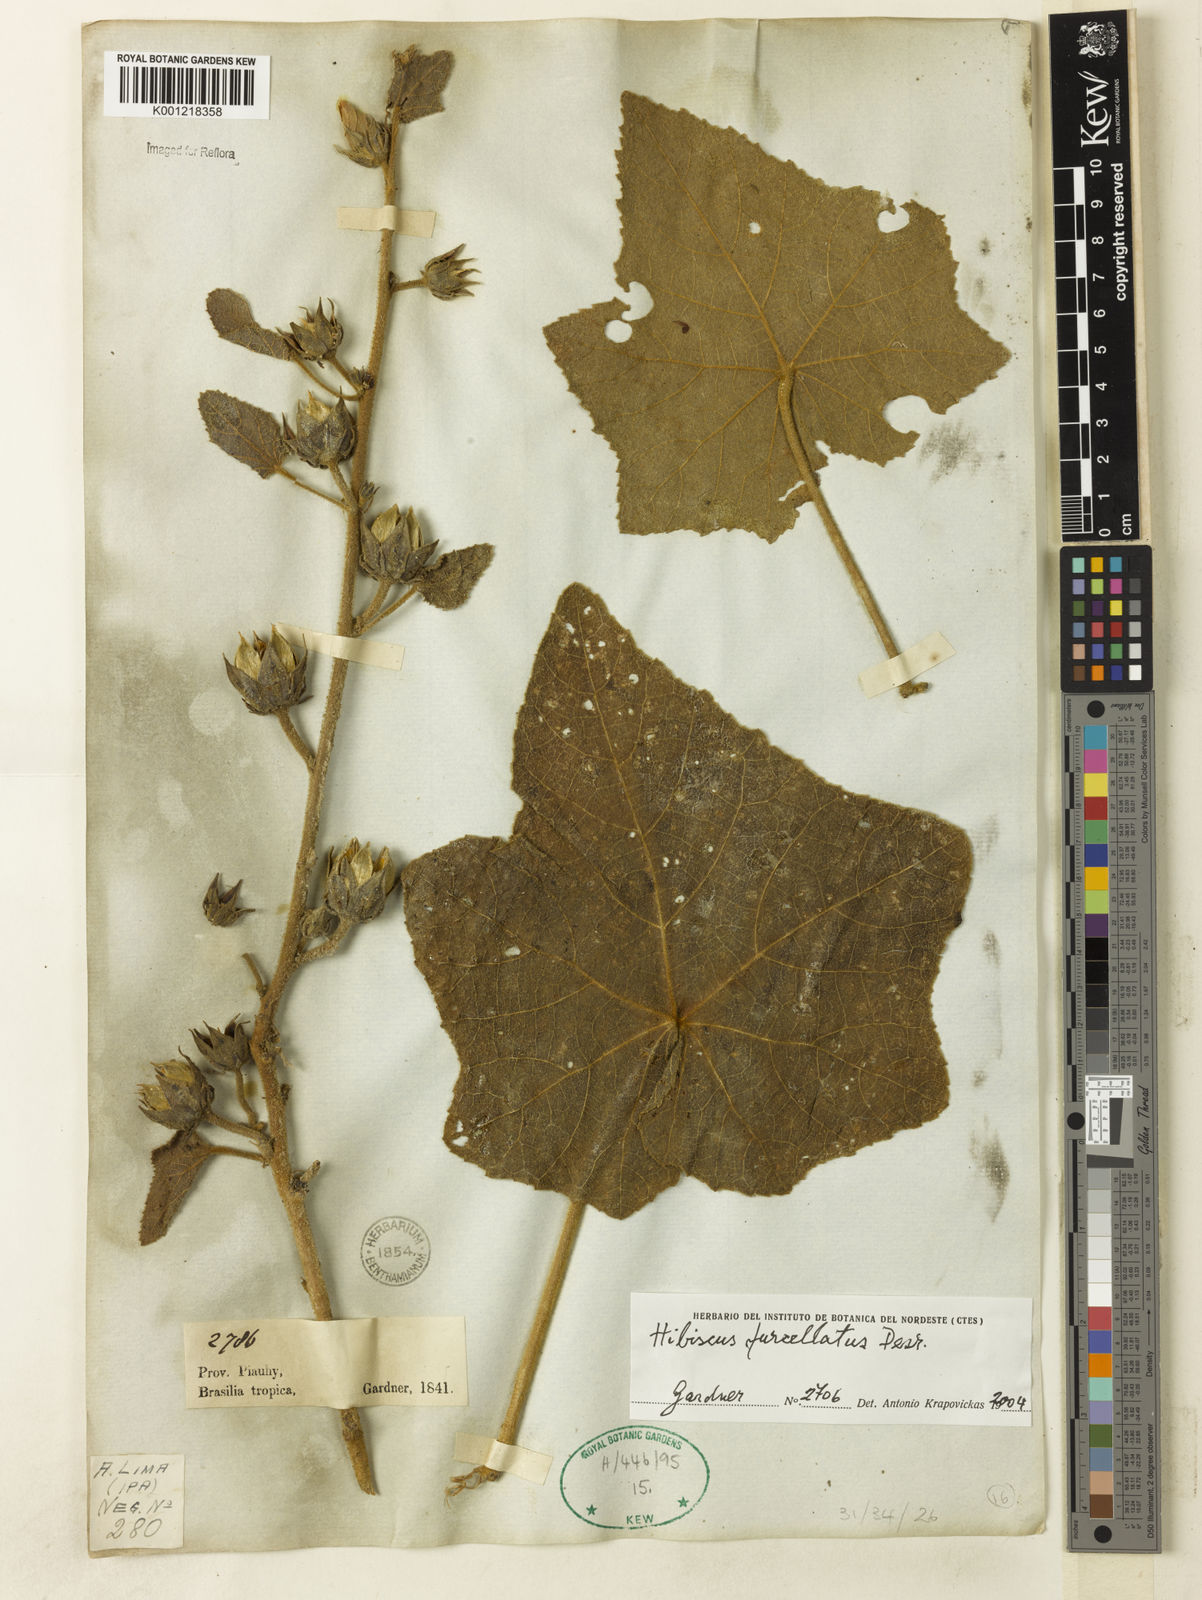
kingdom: Plantae
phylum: Tracheophyta
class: Magnoliopsida
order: Malvales
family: Malvaceae
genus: Hibiscus
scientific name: Hibiscus furcellatus
